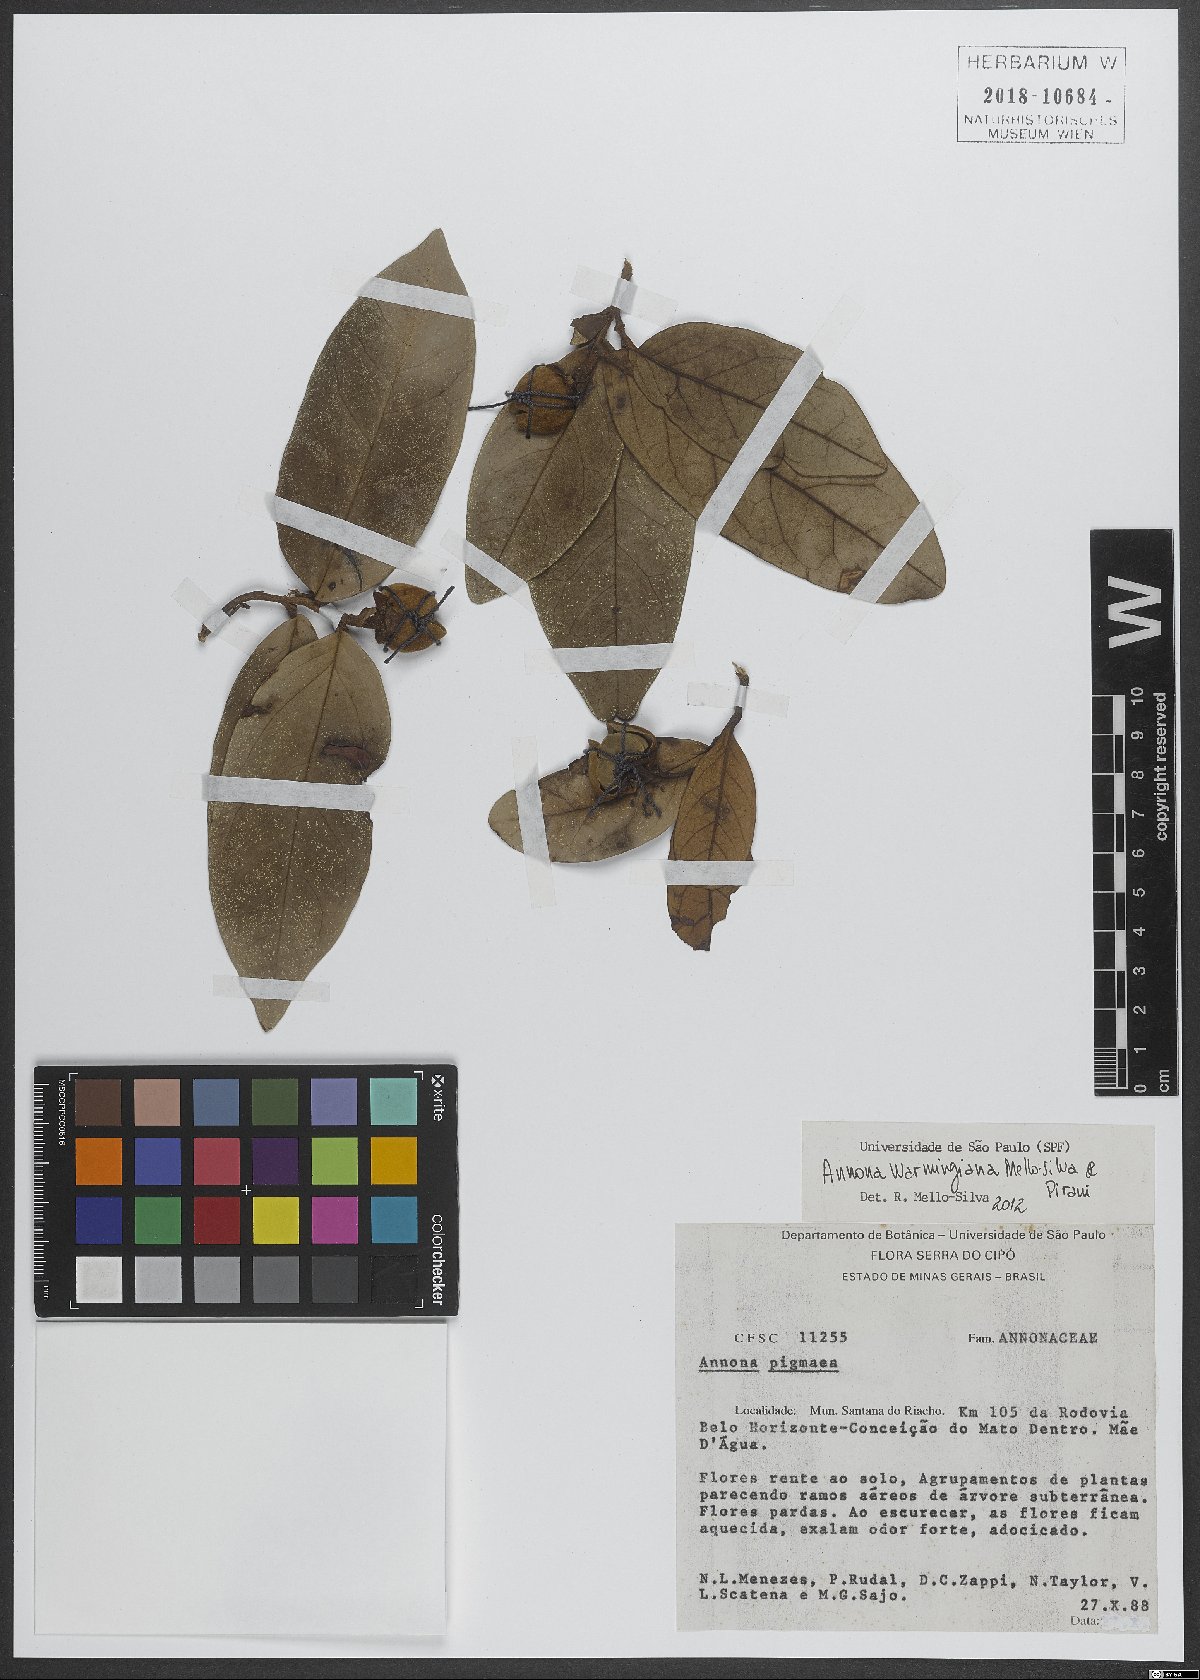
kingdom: Plantae
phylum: Tracheophyta
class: Magnoliopsida
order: Magnoliales
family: Annonaceae
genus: Annona
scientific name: Annona warmingiana
